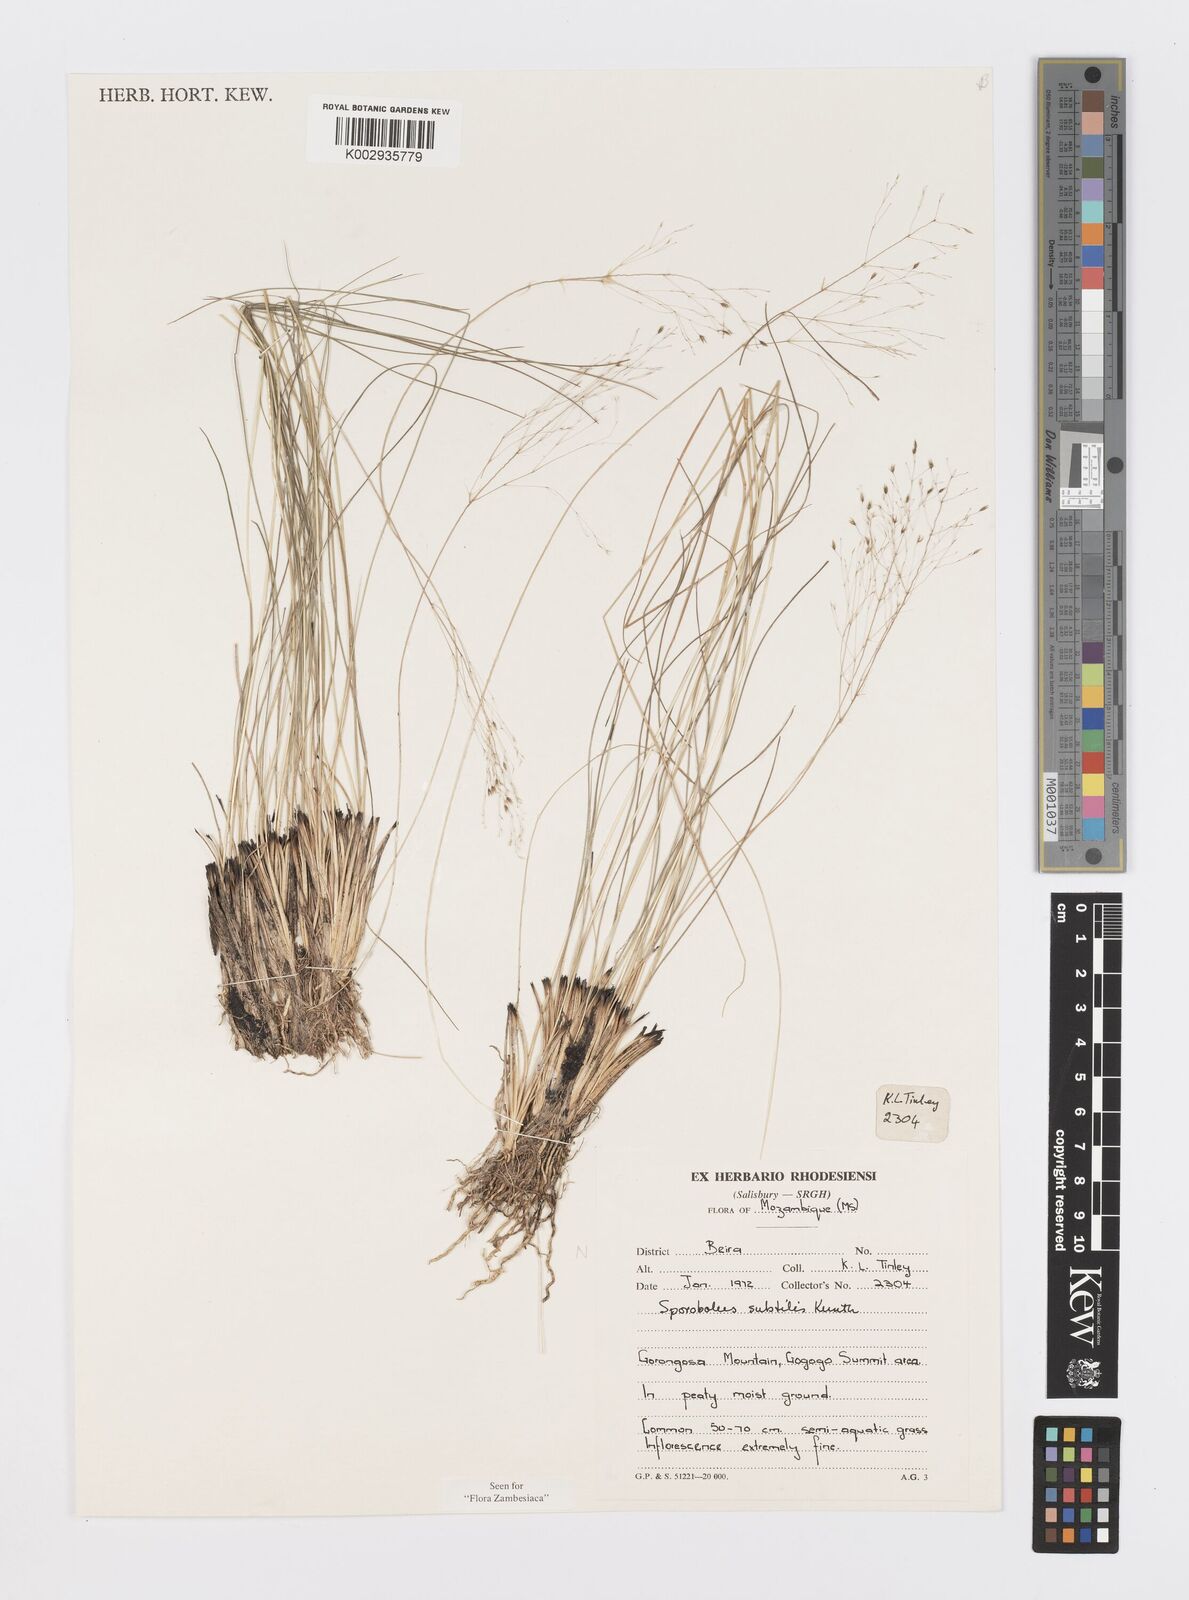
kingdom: Plantae
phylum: Tracheophyta
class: Liliopsida
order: Poales
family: Poaceae
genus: Sporobolus
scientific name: Sporobolus subtilis
